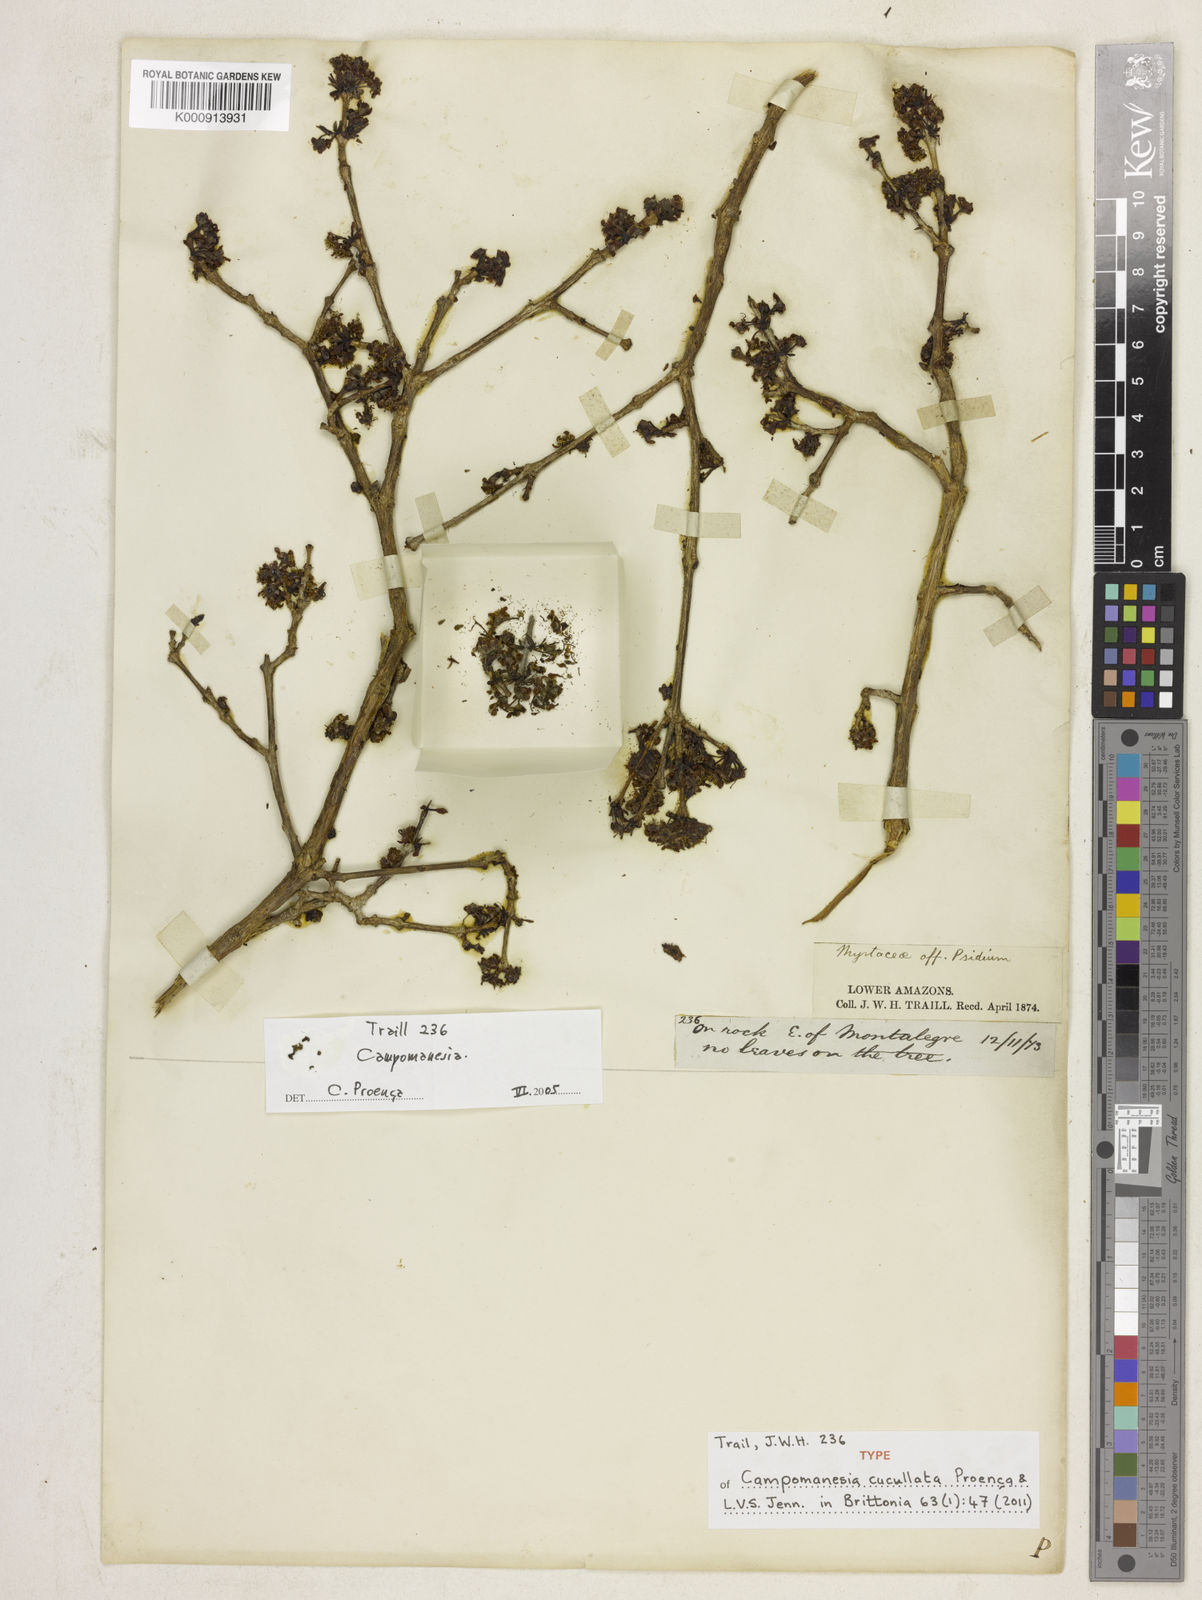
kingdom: Plantae
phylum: Tracheophyta
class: Magnoliopsida
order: Myrtales
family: Myrtaceae
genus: Campomanesia
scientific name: Campomanesia
